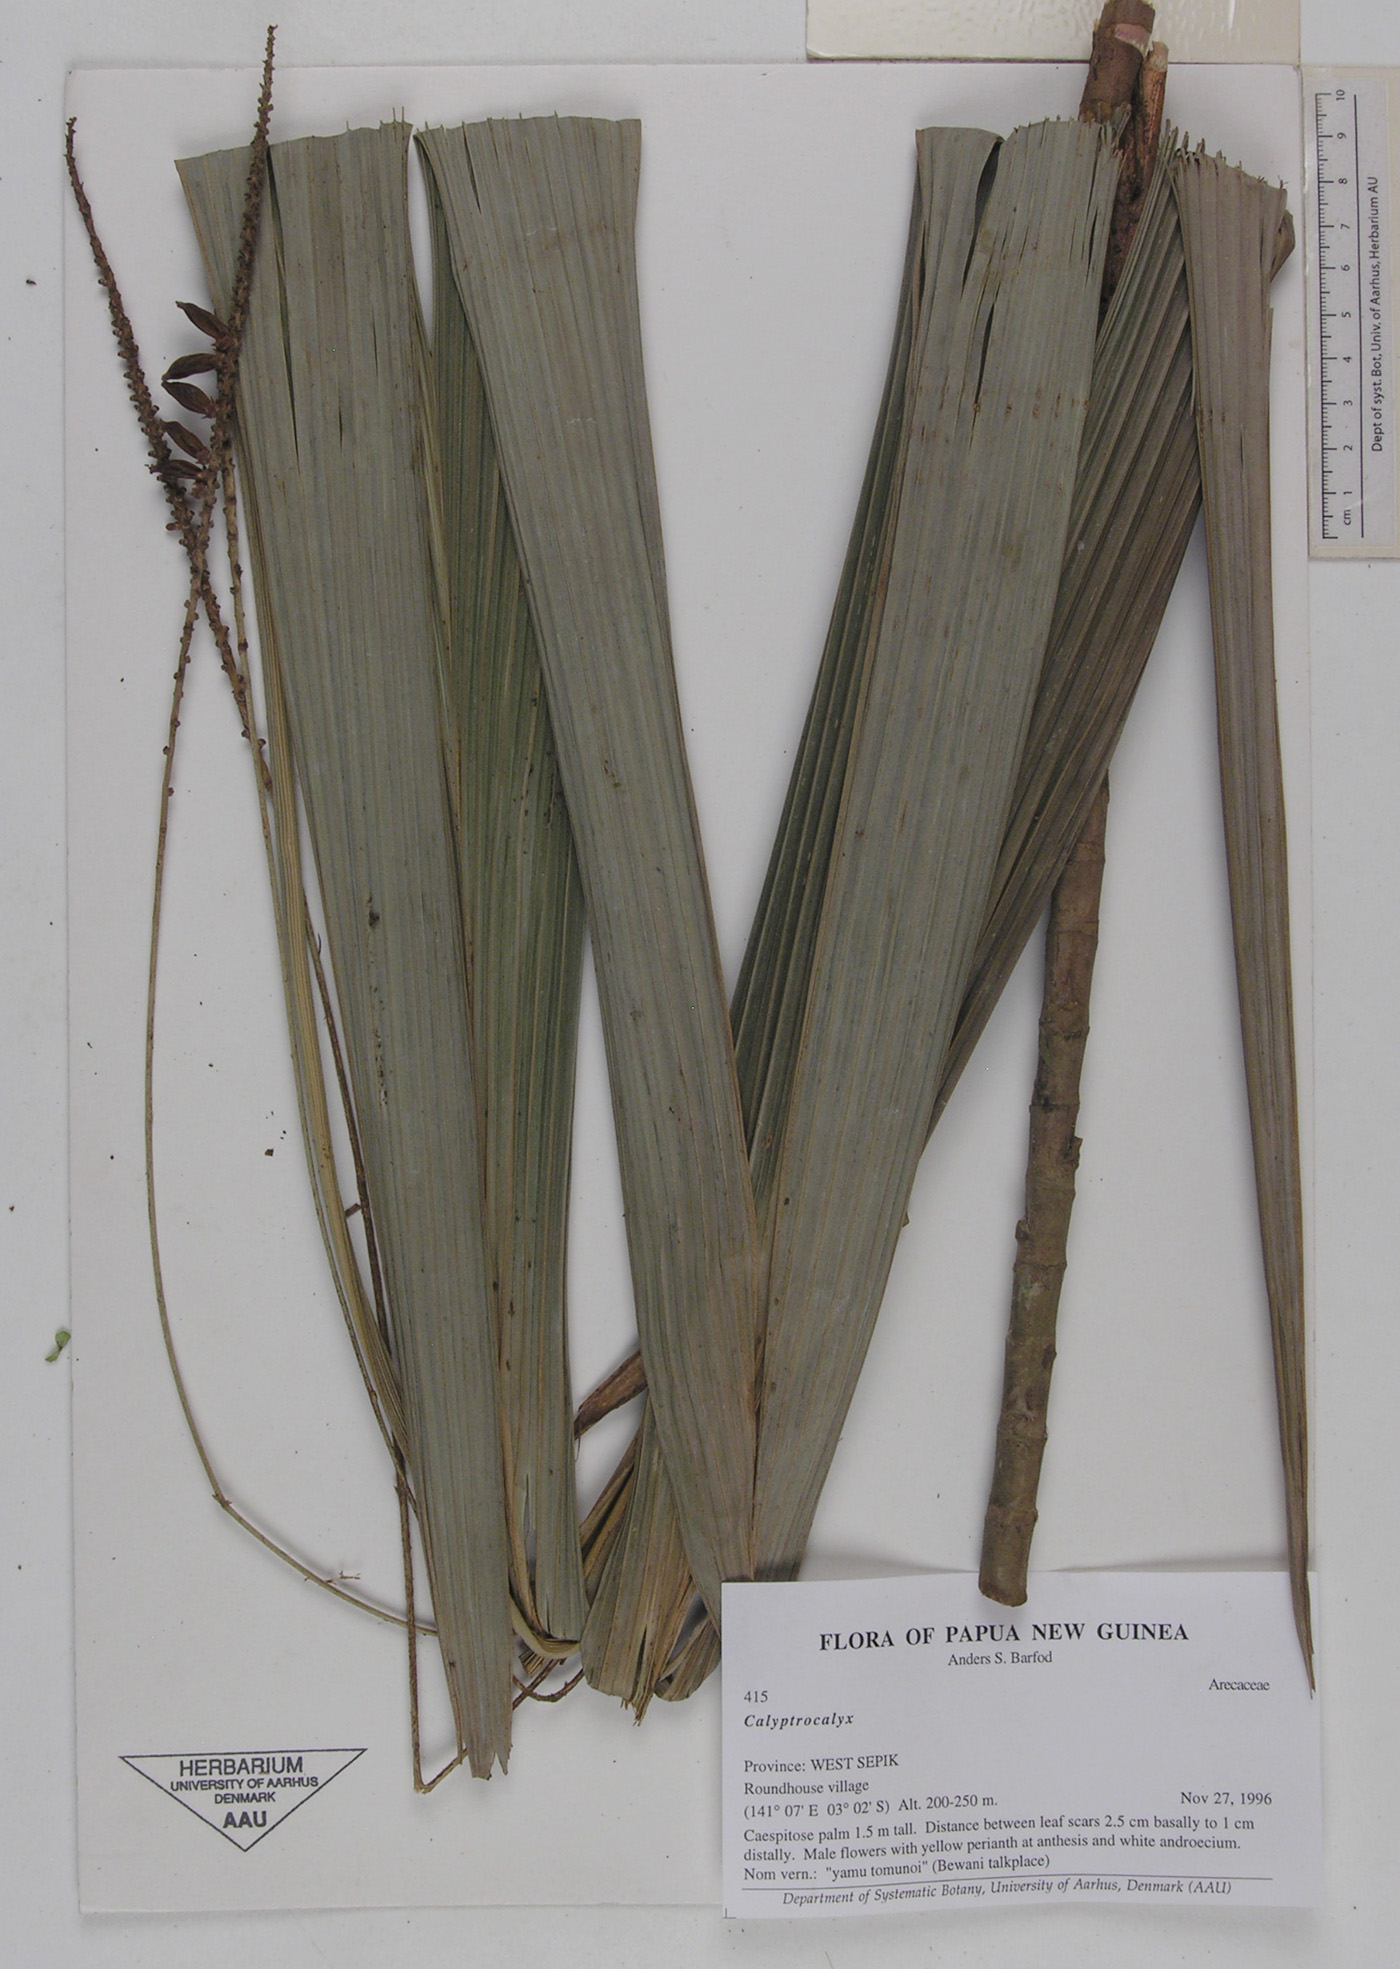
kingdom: Plantae
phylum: Tracheophyta
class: Liliopsida
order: Arecales
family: Arecaceae
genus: Calyptrocalyx
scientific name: Calyptrocalyx
